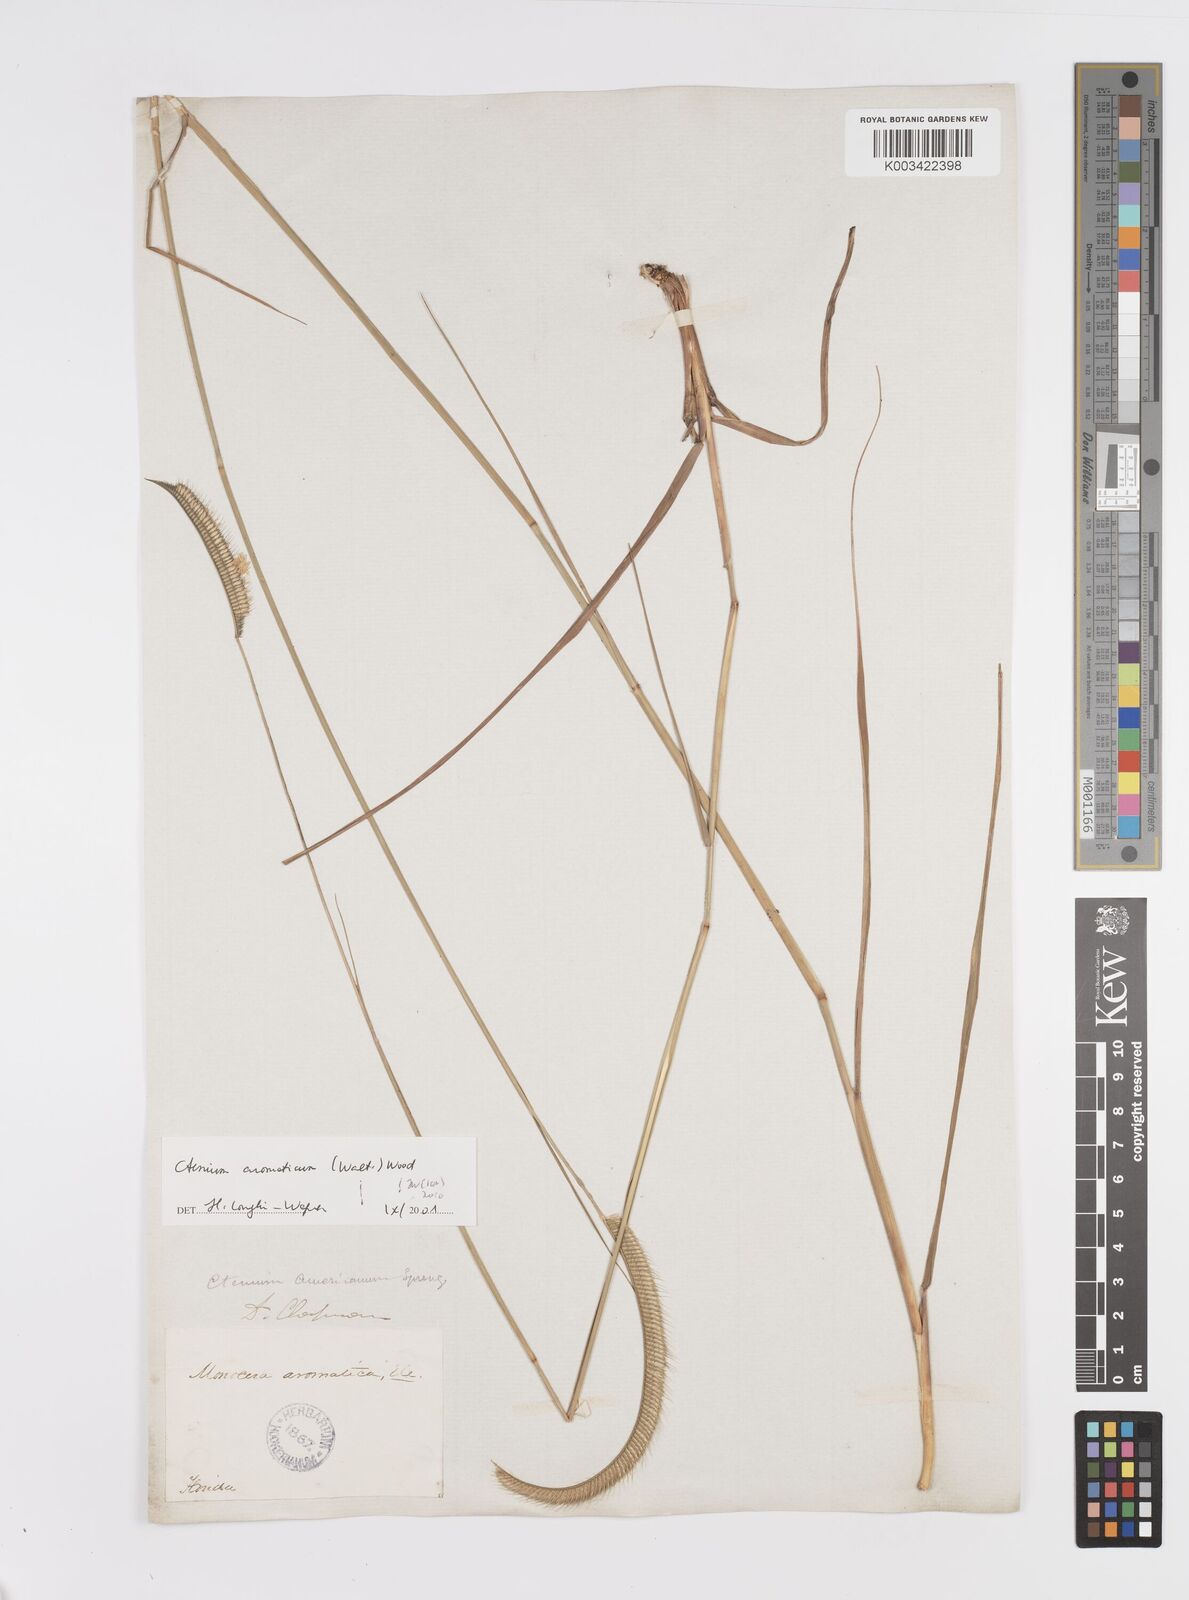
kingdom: Plantae
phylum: Tracheophyta
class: Liliopsida
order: Poales
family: Poaceae
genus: Ctenium
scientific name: Ctenium aromaticum
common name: Toothache grass
